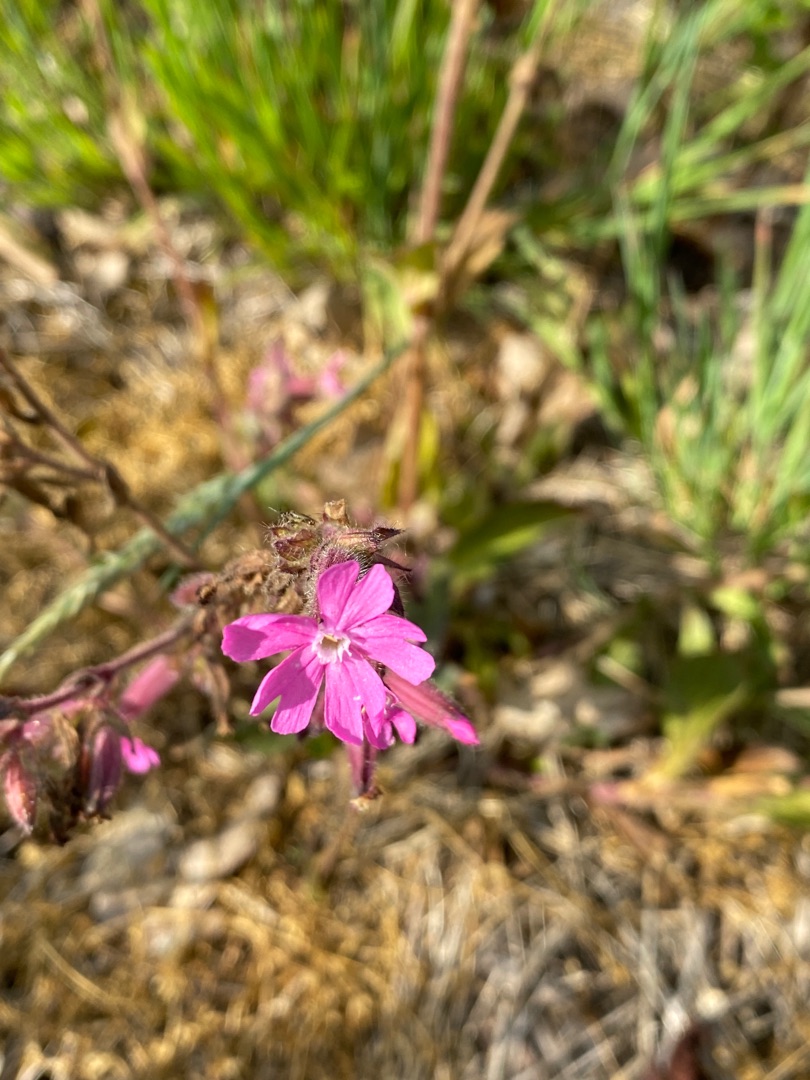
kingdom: Plantae
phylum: Tracheophyta
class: Magnoliopsida
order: Caryophyllales
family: Caryophyllaceae
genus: Silene
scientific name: Silene dioica
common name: Dagpragtstjerne
